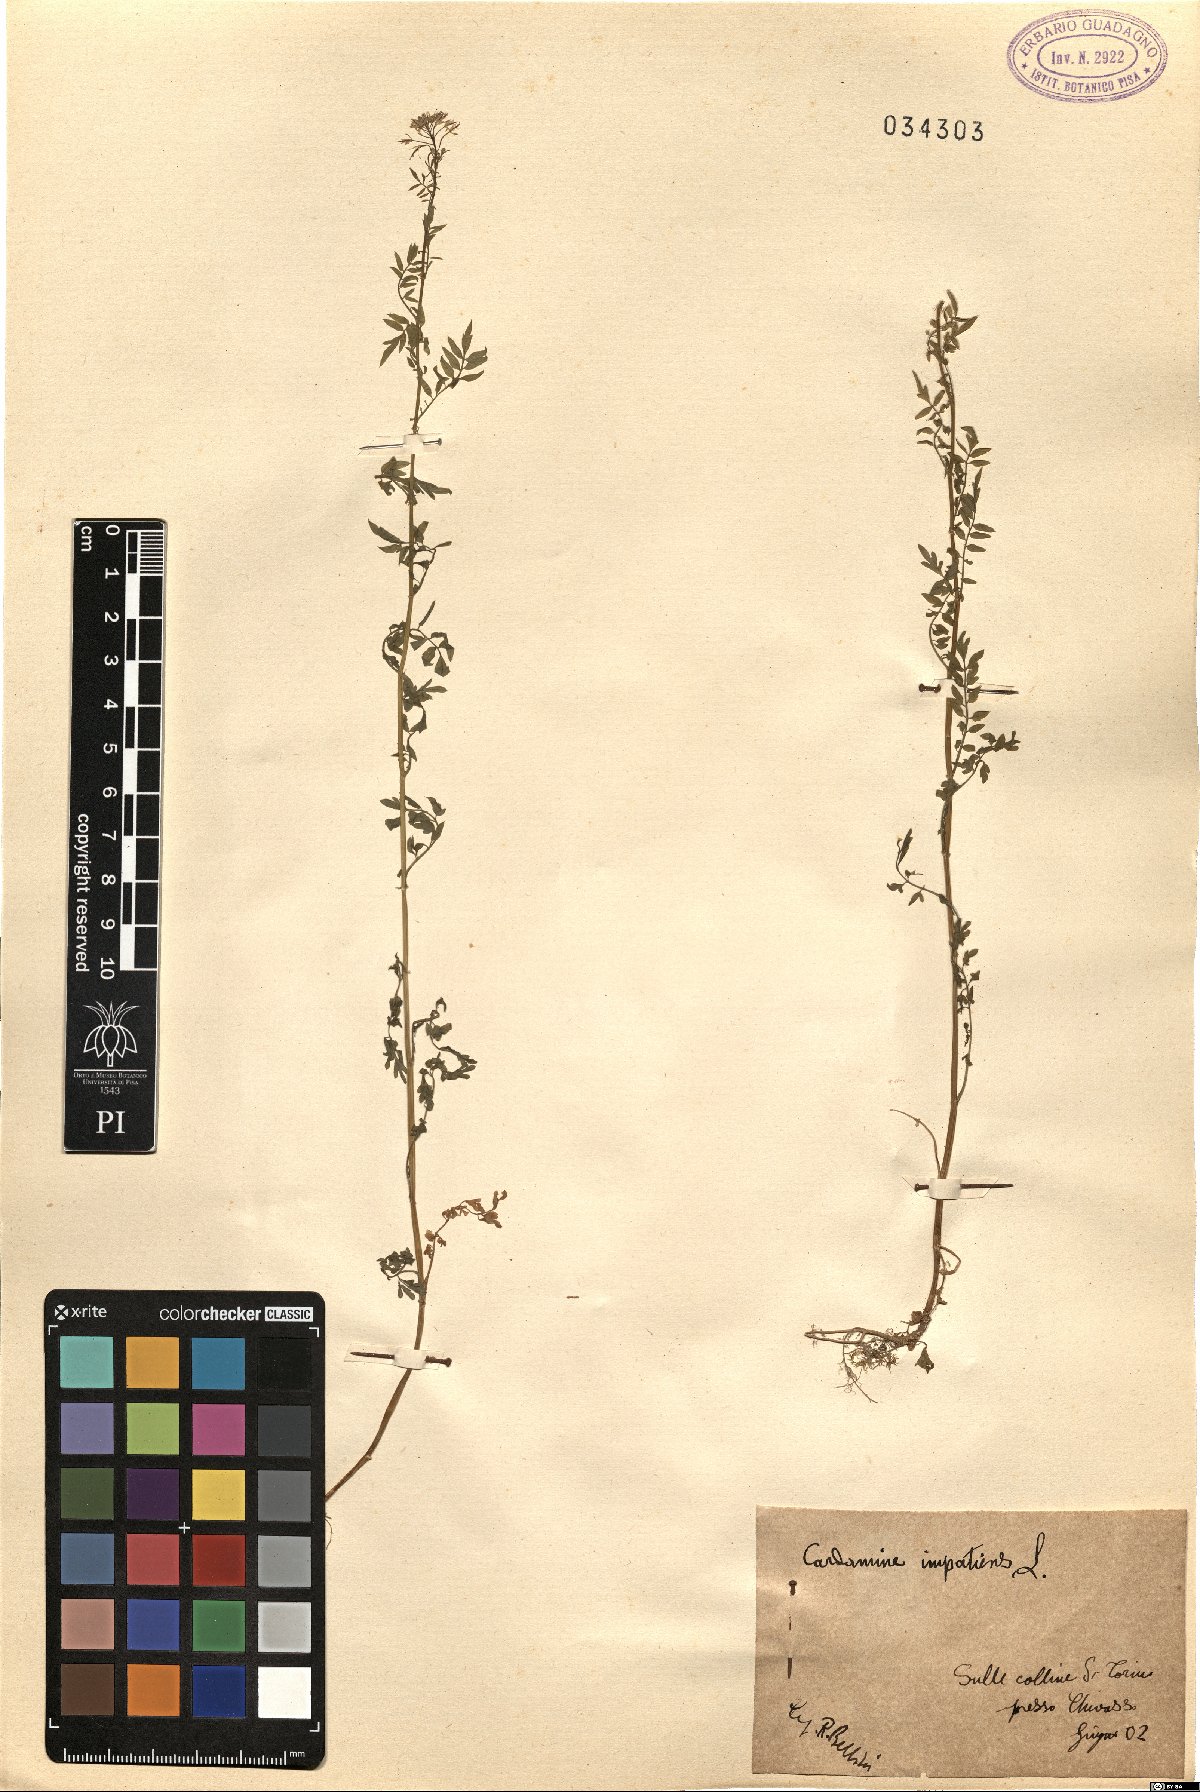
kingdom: Plantae
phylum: Tracheophyta
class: Magnoliopsida
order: Brassicales
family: Brassicaceae
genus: Cardamine
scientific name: Cardamine impatiens
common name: Narrow-leaved bitter-cress
